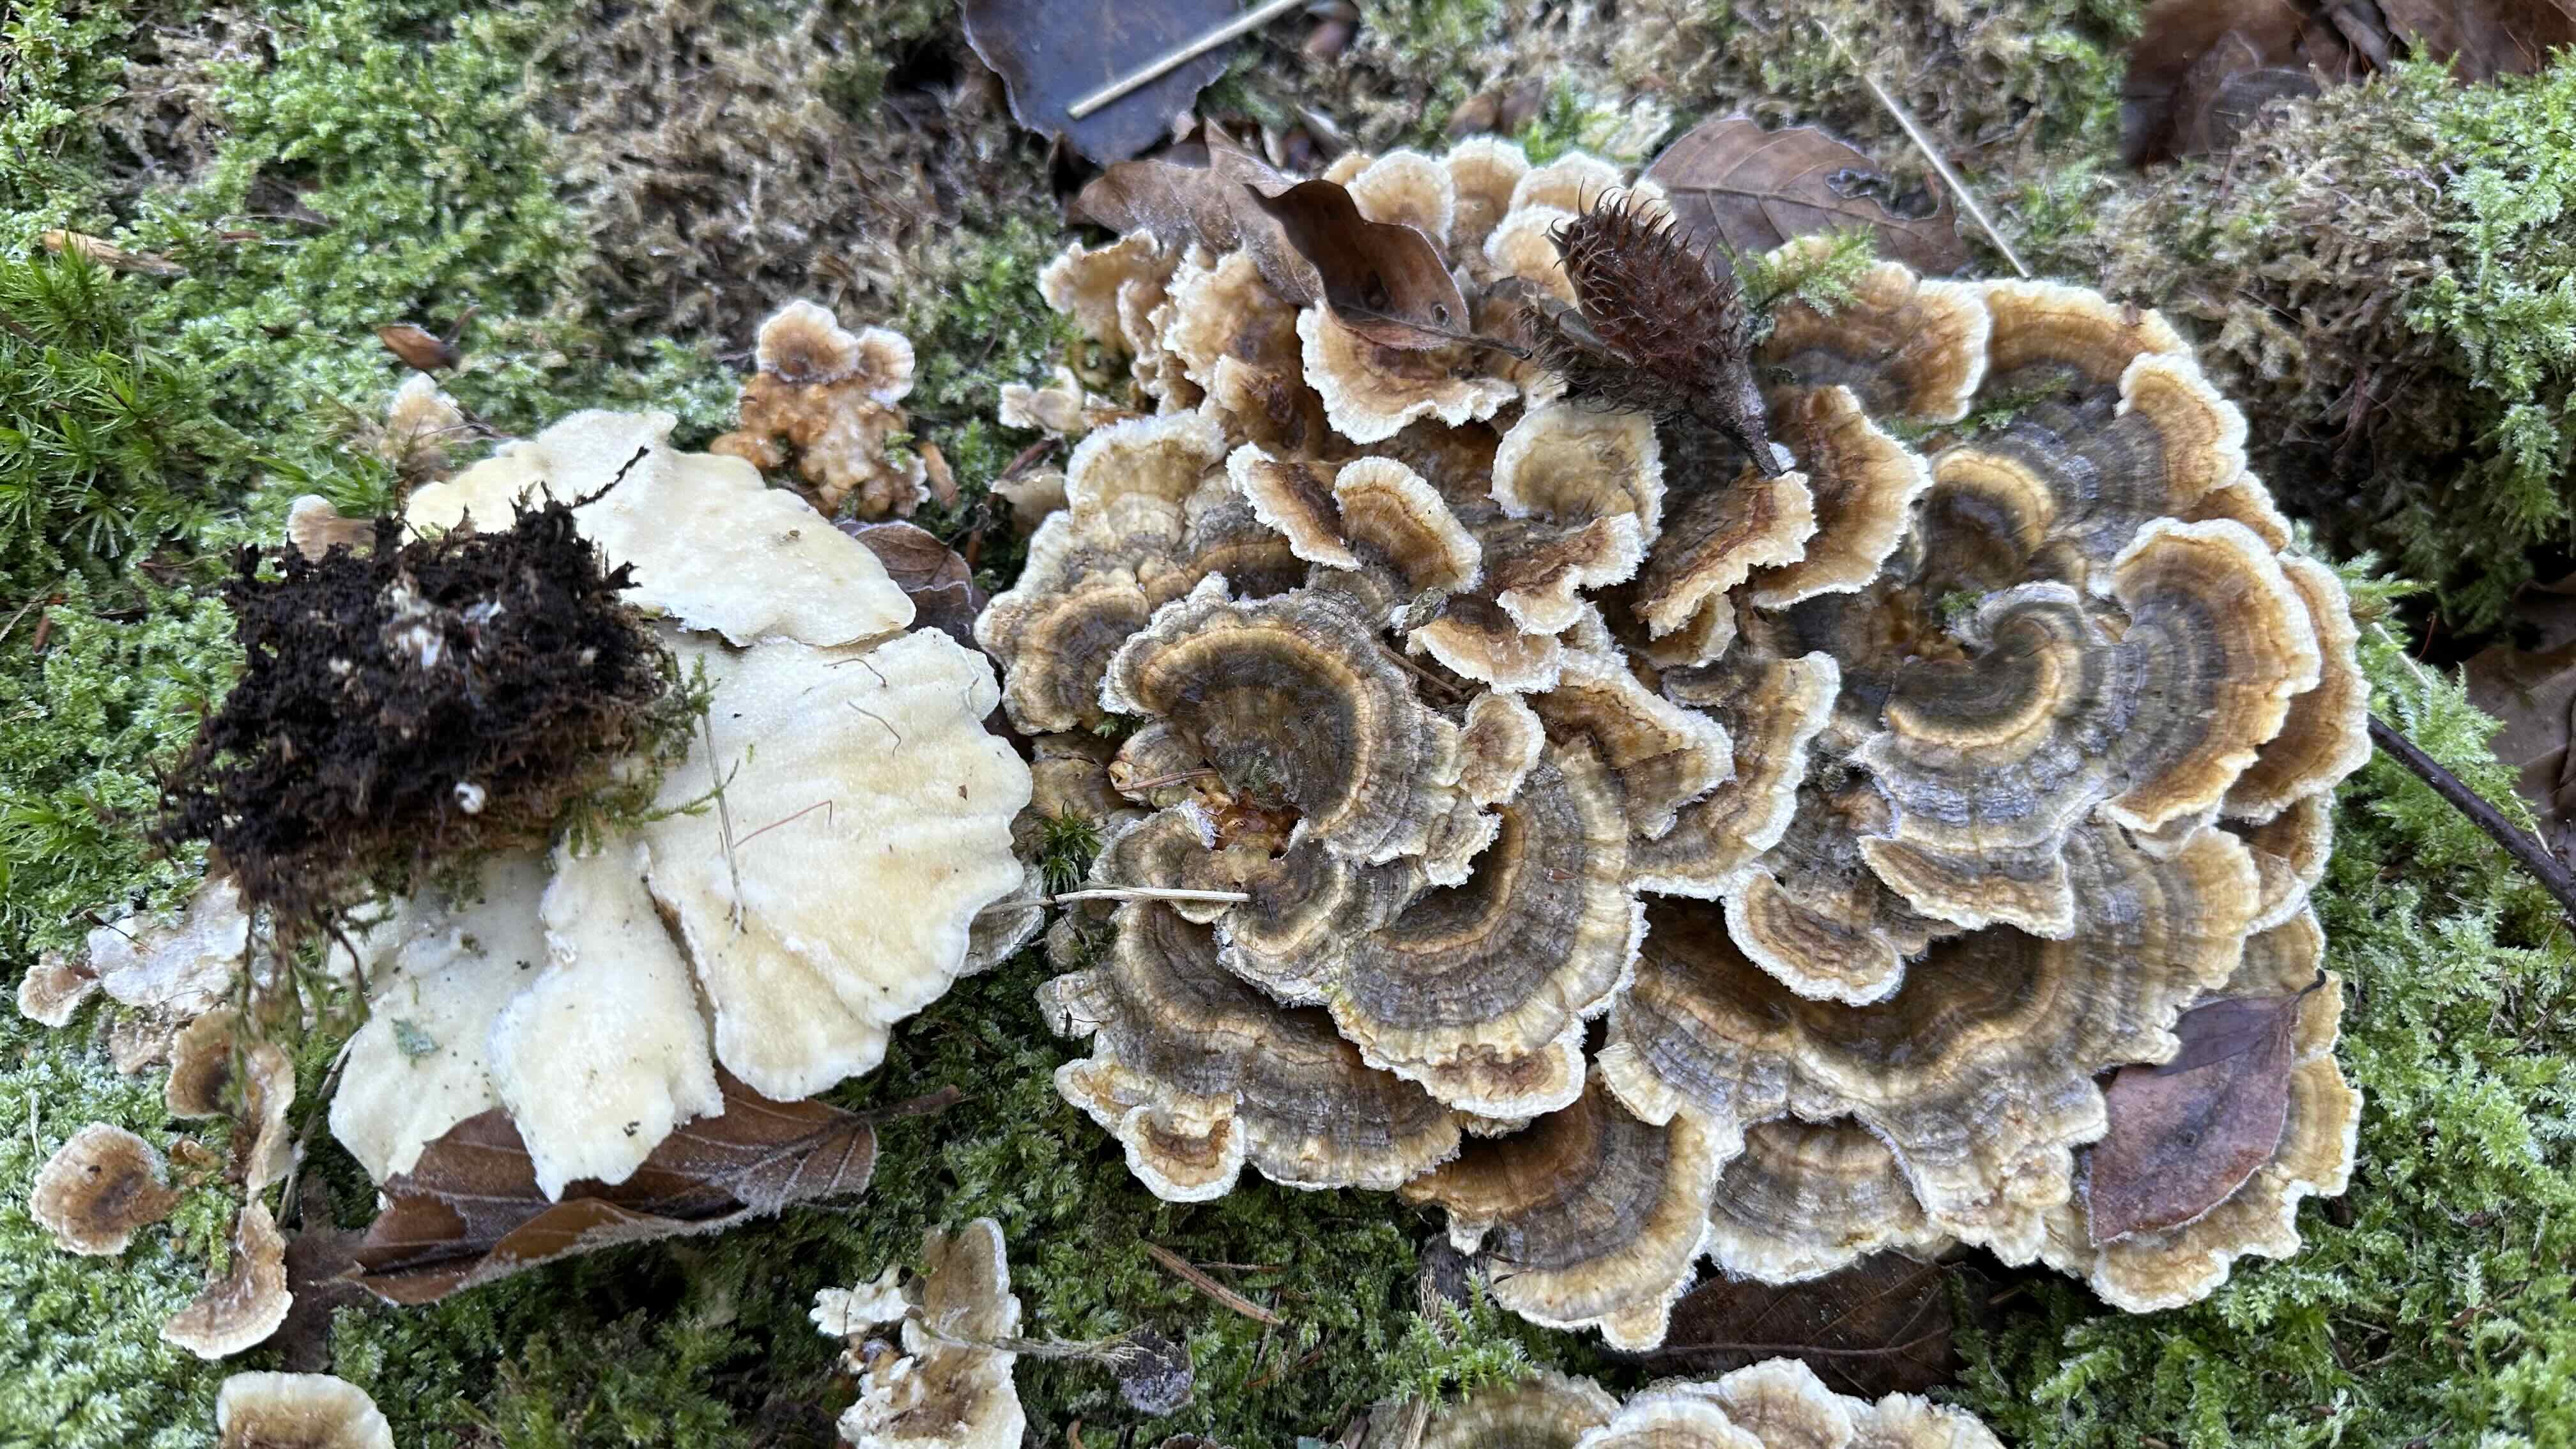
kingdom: Fungi
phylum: Basidiomycota
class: Agaricomycetes
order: Polyporales
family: Polyporaceae
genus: Trametes
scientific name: Trametes versicolor
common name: broget læderporesvamp
